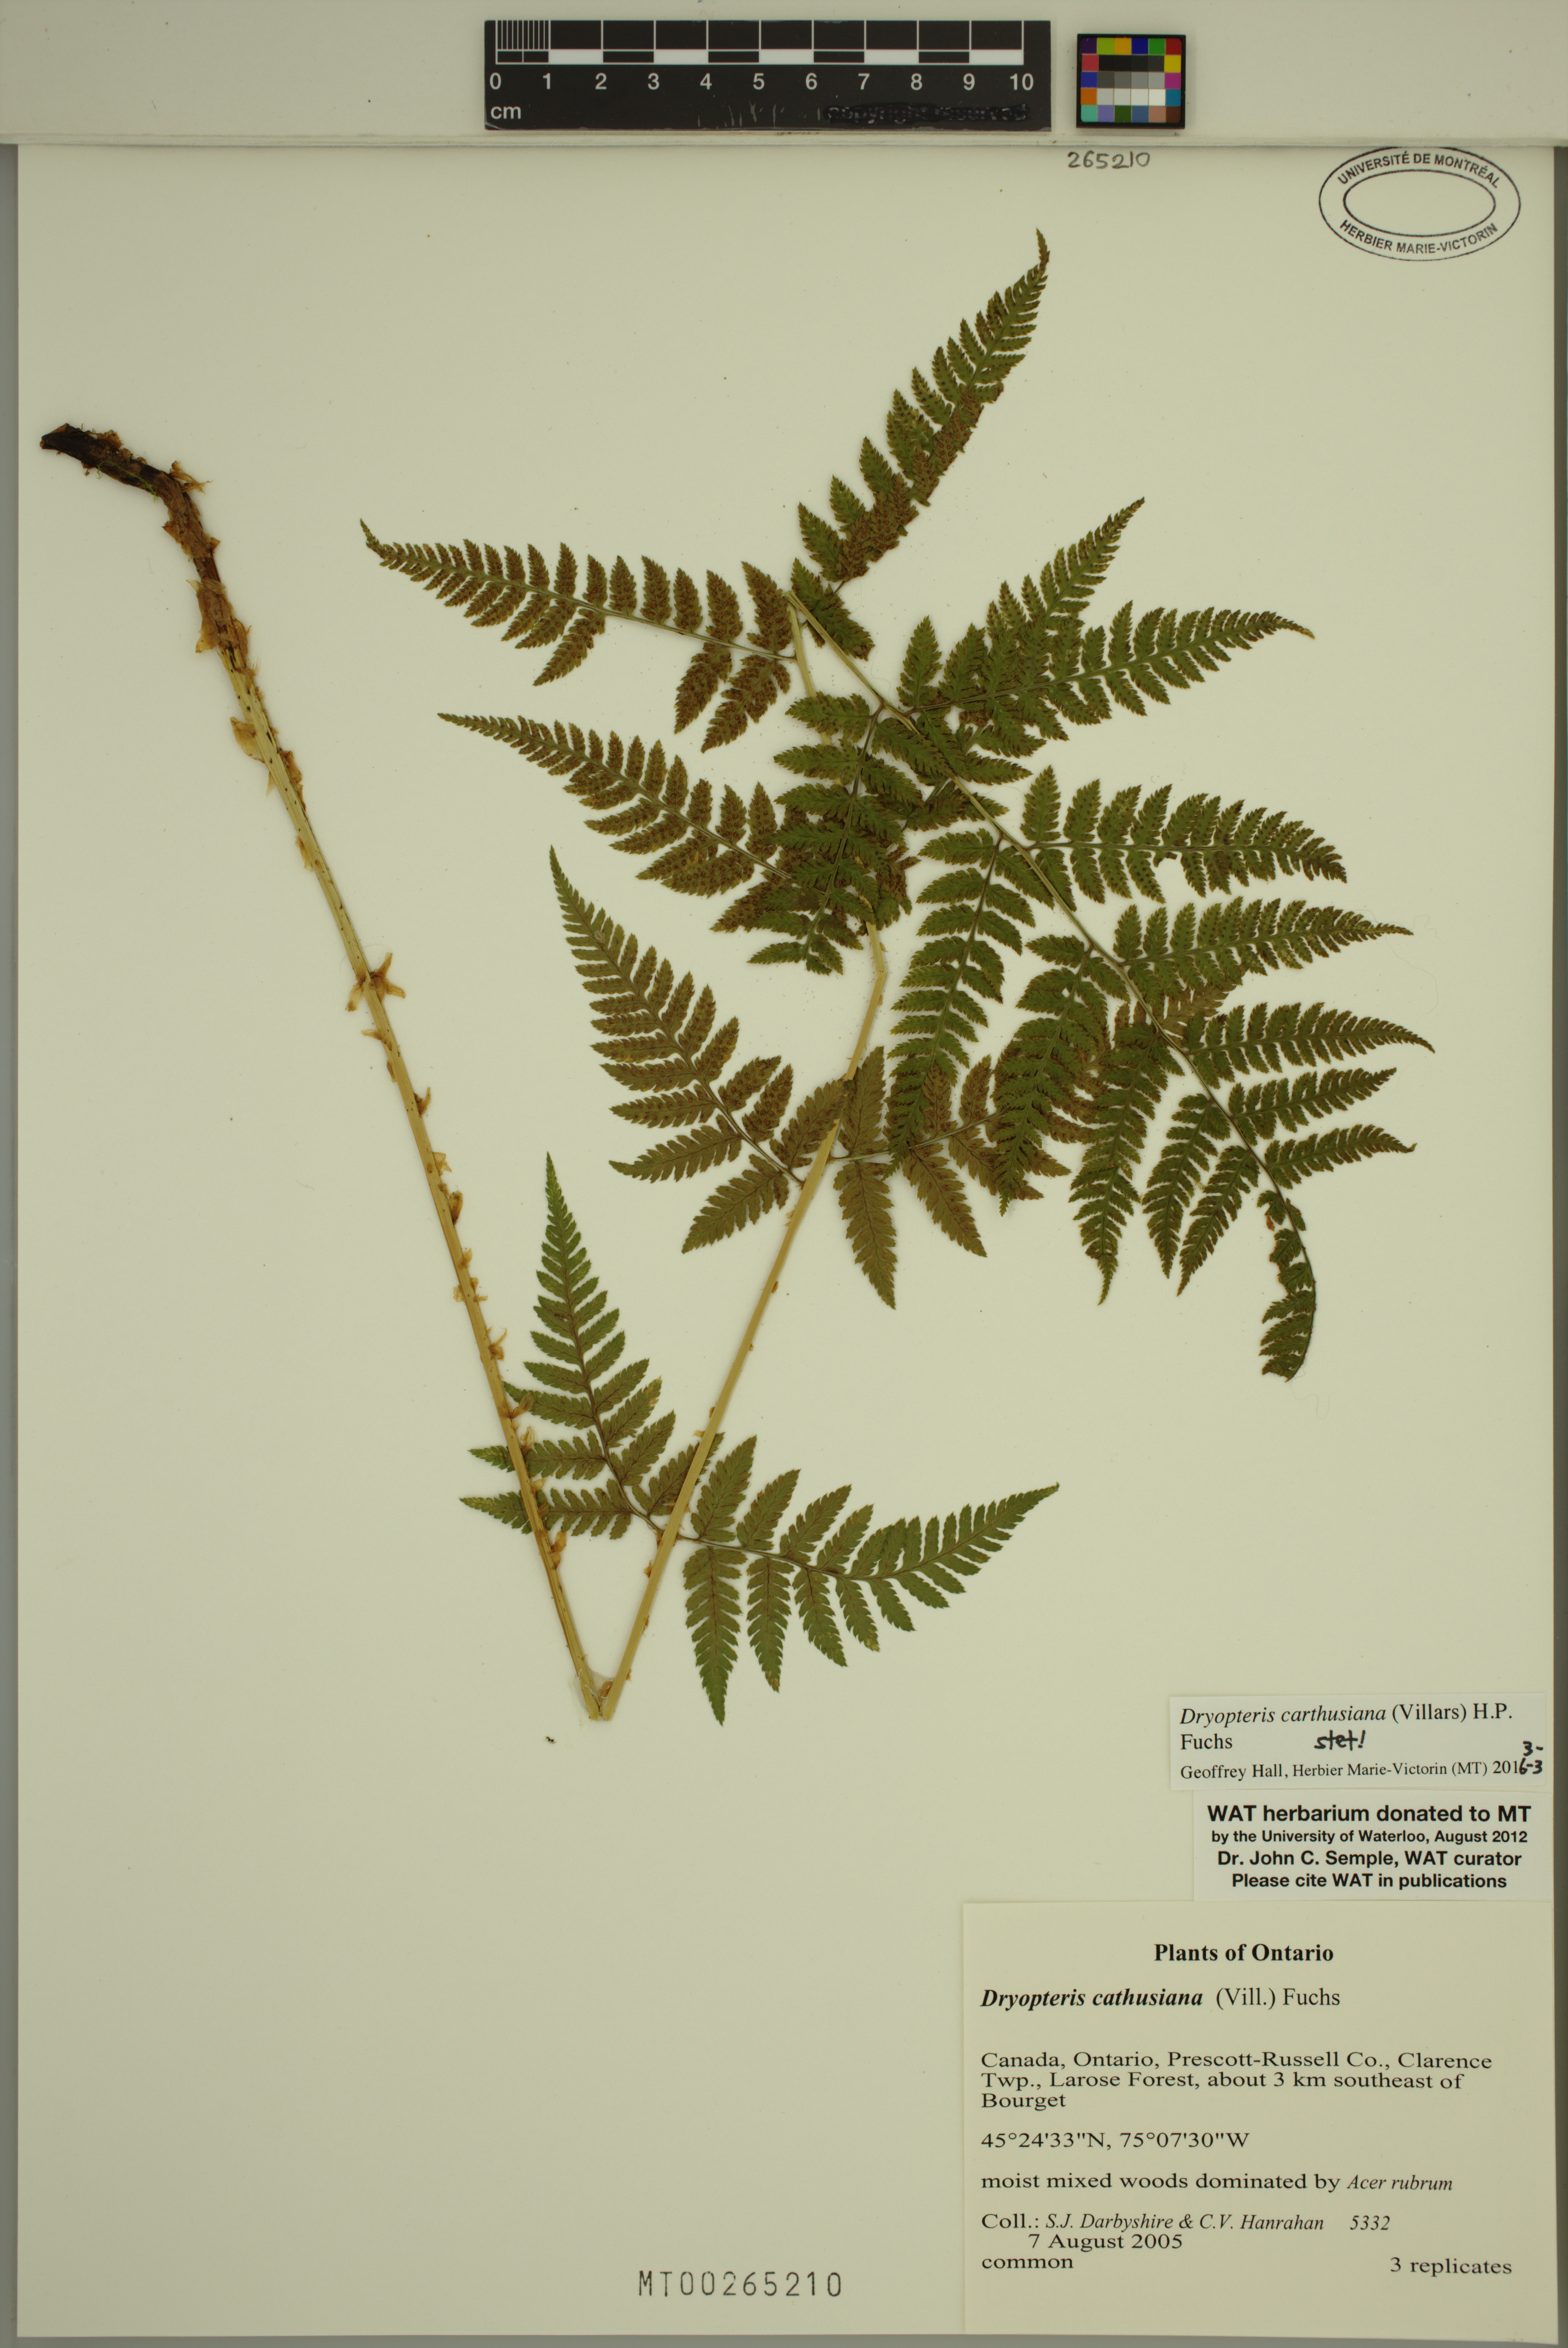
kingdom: Plantae
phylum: Tracheophyta
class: Polypodiopsida
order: Polypodiales
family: Dryopteridaceae
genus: Dryopteris
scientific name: Dryopteris carthusiana
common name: Narrow buckler-fern
